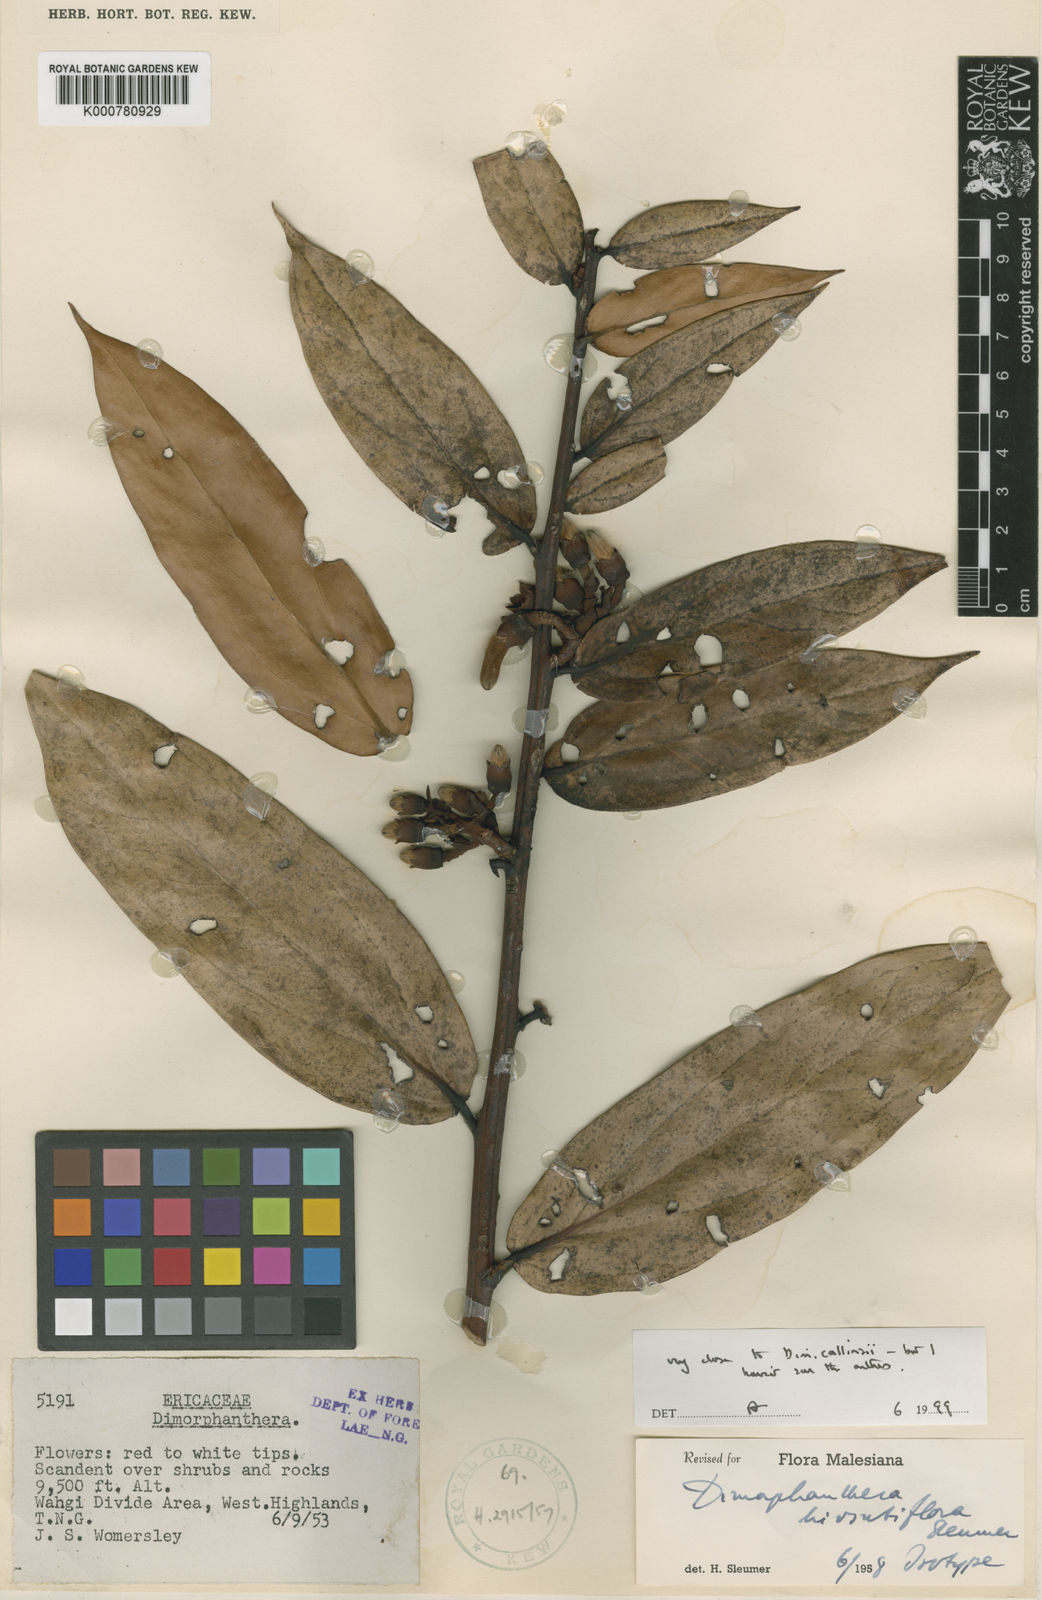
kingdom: Plantae
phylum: Tracheophyta
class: Magnoliopsida
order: Ericales
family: Ericaceae
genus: Dimorphanthera
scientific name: Dimorphanthera hirsutiflora
